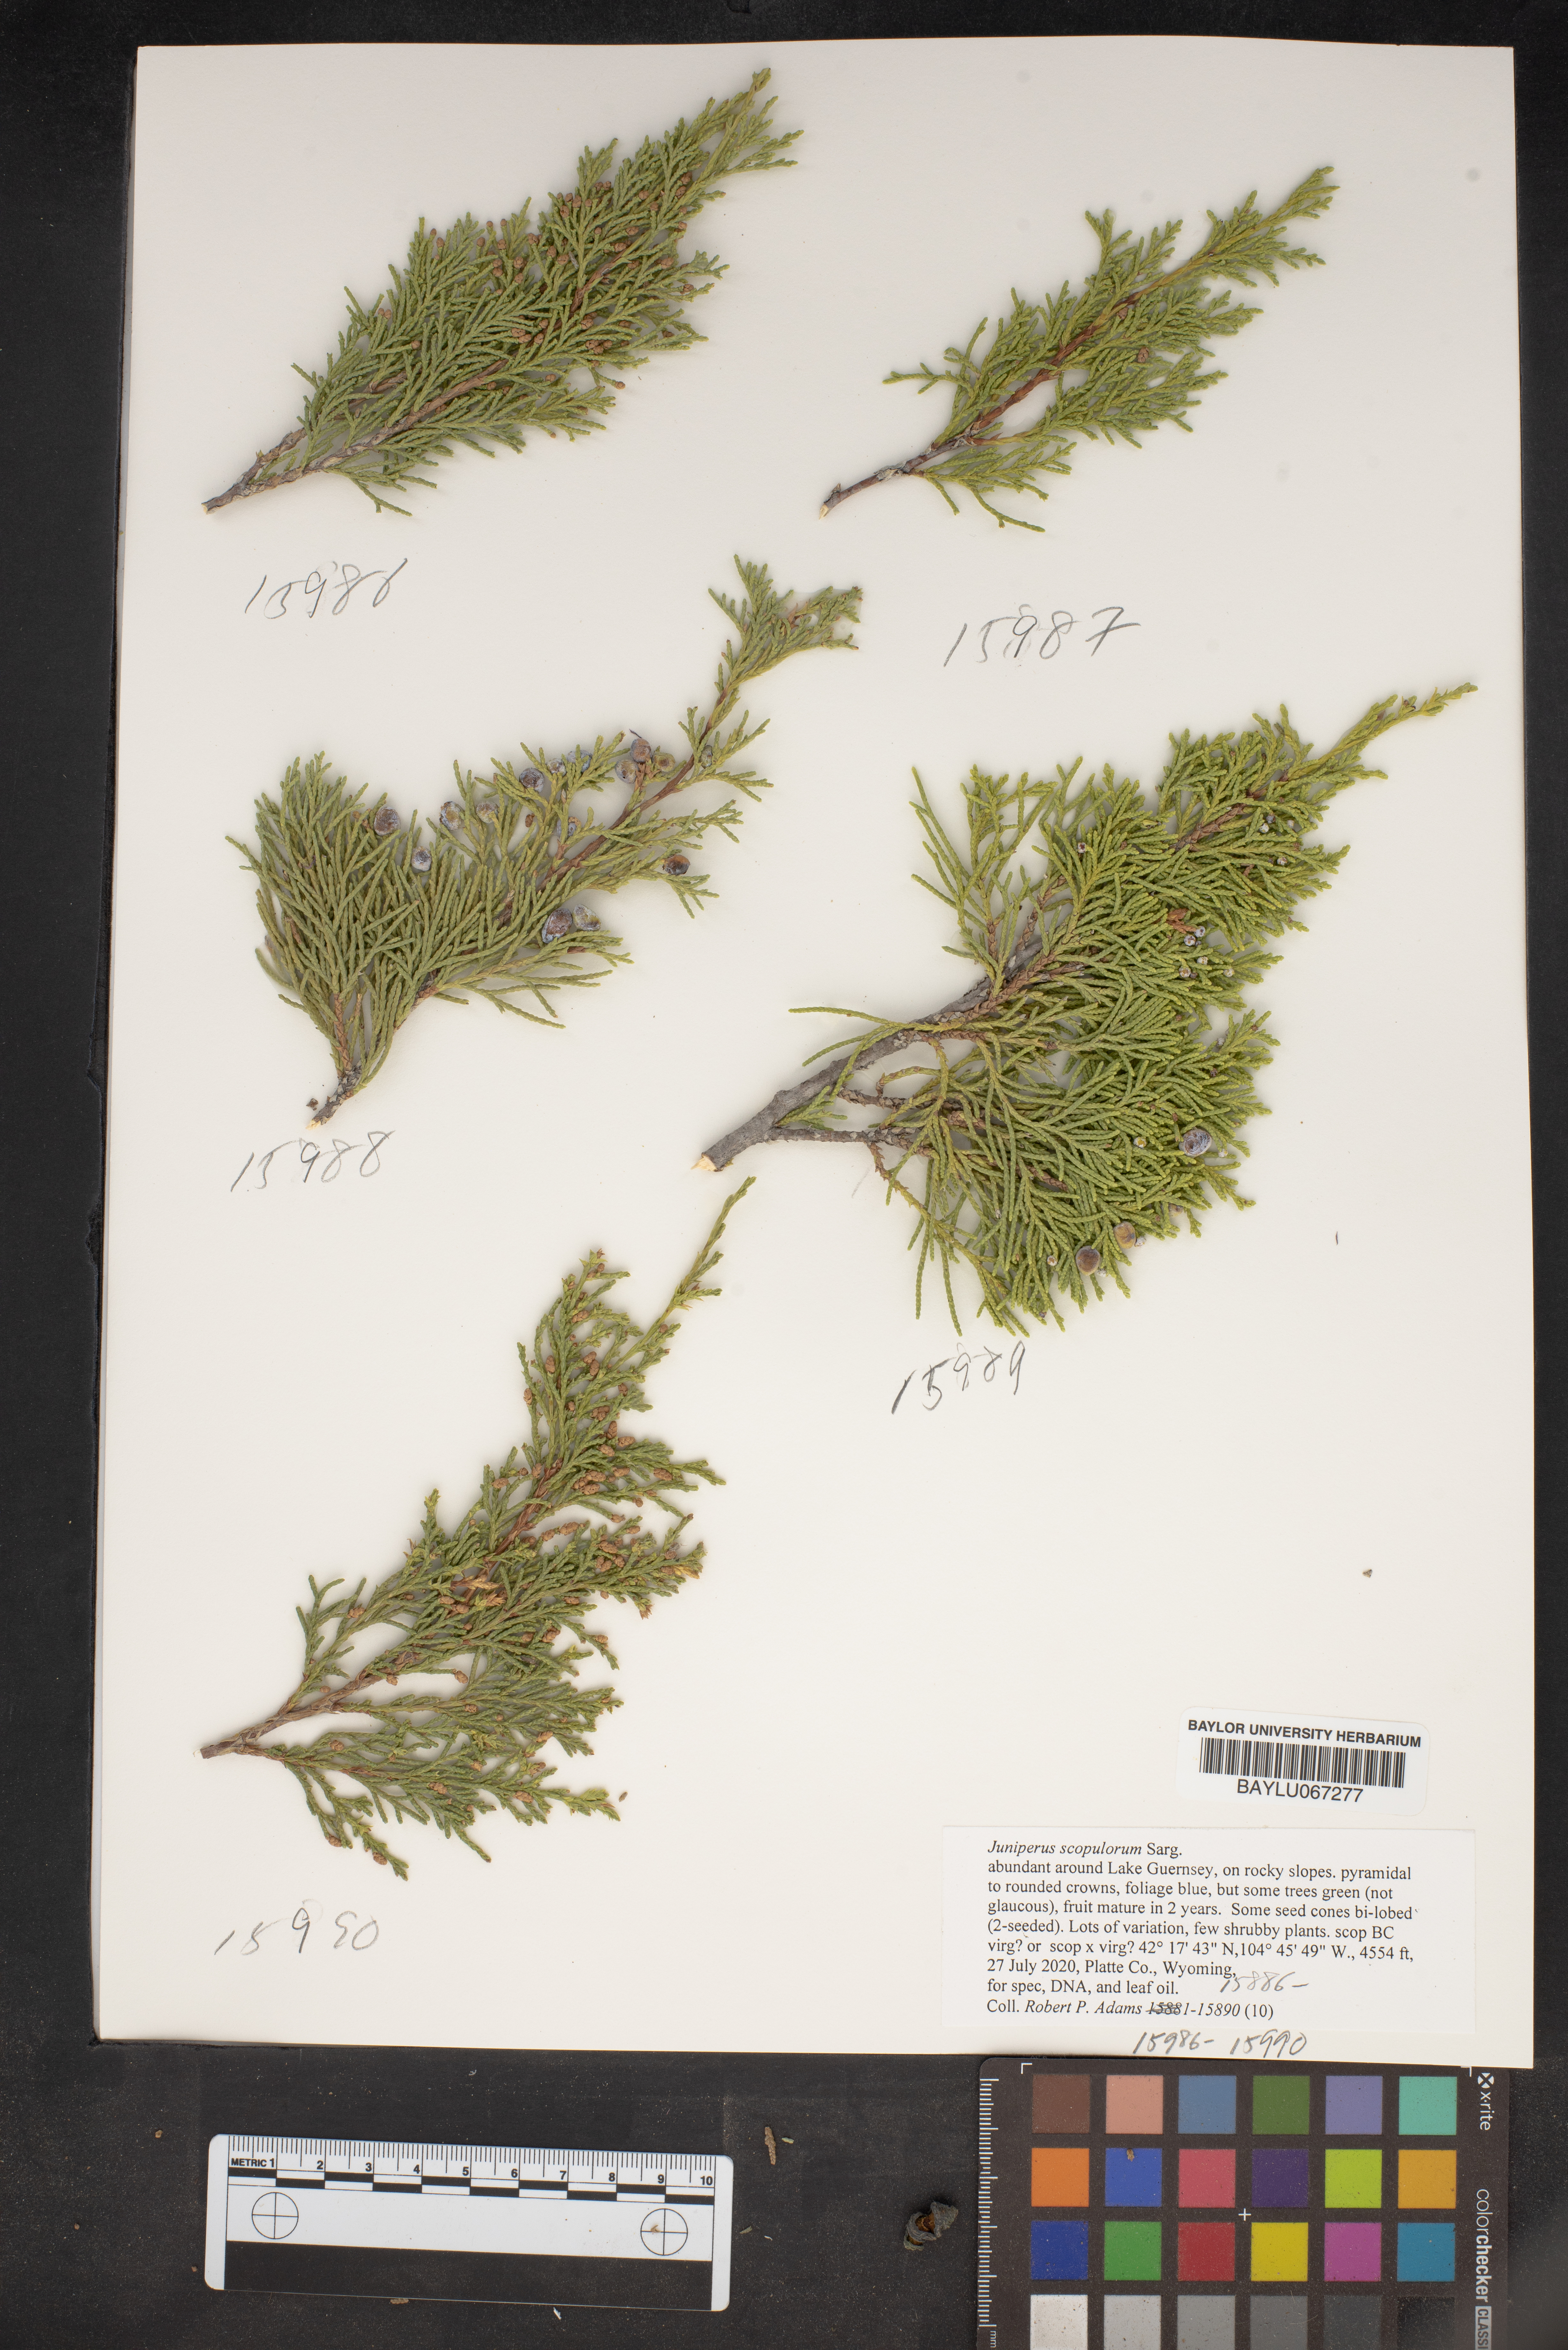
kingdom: Plantae
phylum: Tracheophyta
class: Pinopsida
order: Pinales
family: Cupressaceae
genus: Juniperus
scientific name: Juniperus scopulorum
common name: Rocky mountain juniper
